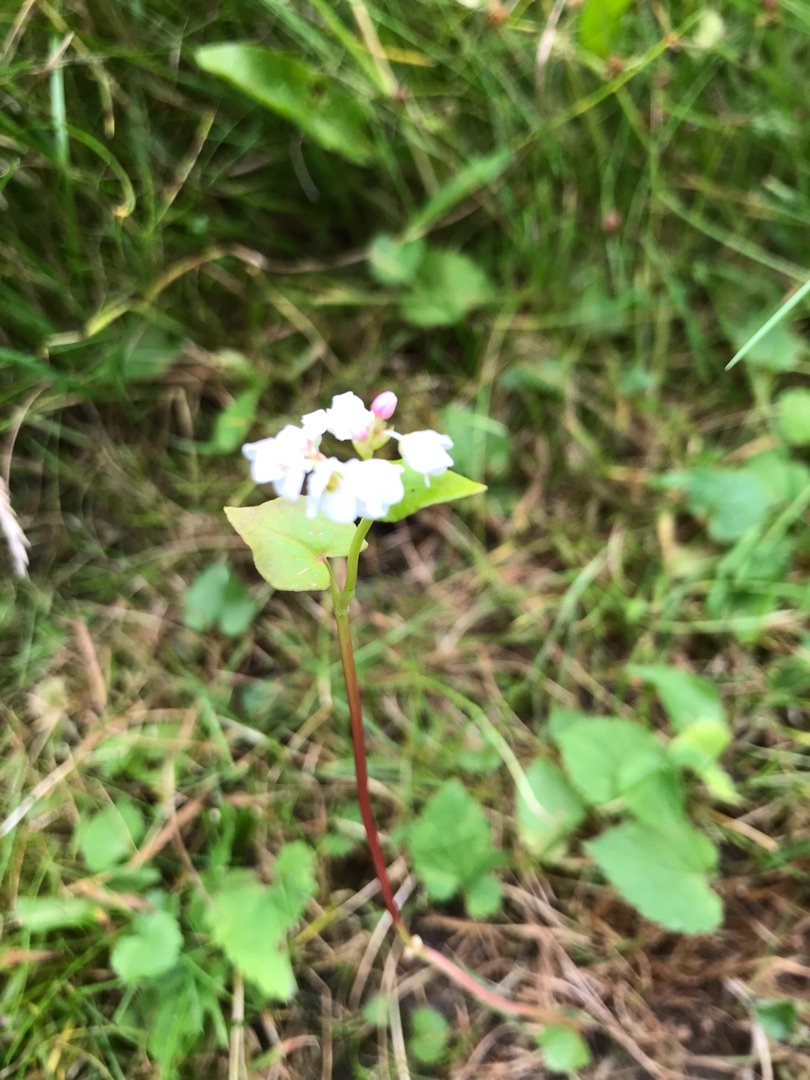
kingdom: Plantae
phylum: Tracheophyta
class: Magnoliopsida
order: Caryophyllales
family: Polygonaceae
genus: Fagopyrum
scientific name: Fagopyrum esculentum
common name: Almindelig boghvede
